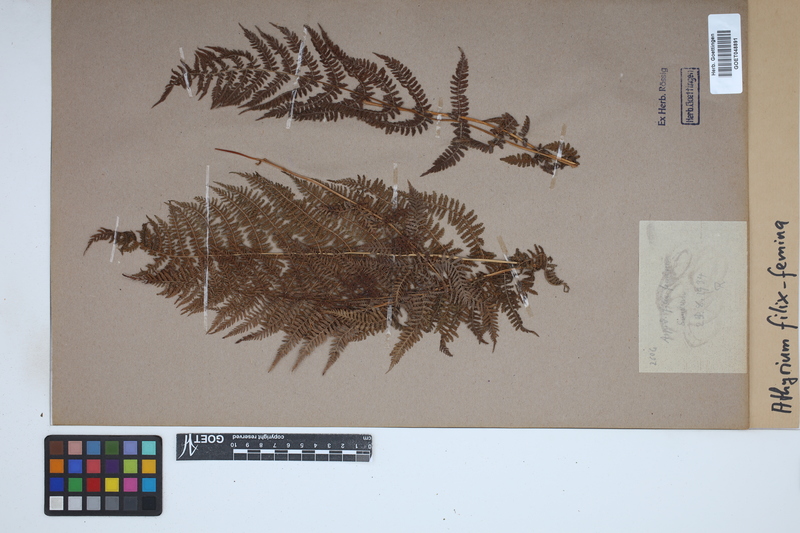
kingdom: Plantae
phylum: Tracheophyta
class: Polypodiopsida
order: Polypodiales
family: Athyriaceae
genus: Athyrium
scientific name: Athyrium filix-femina
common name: Lady fern
